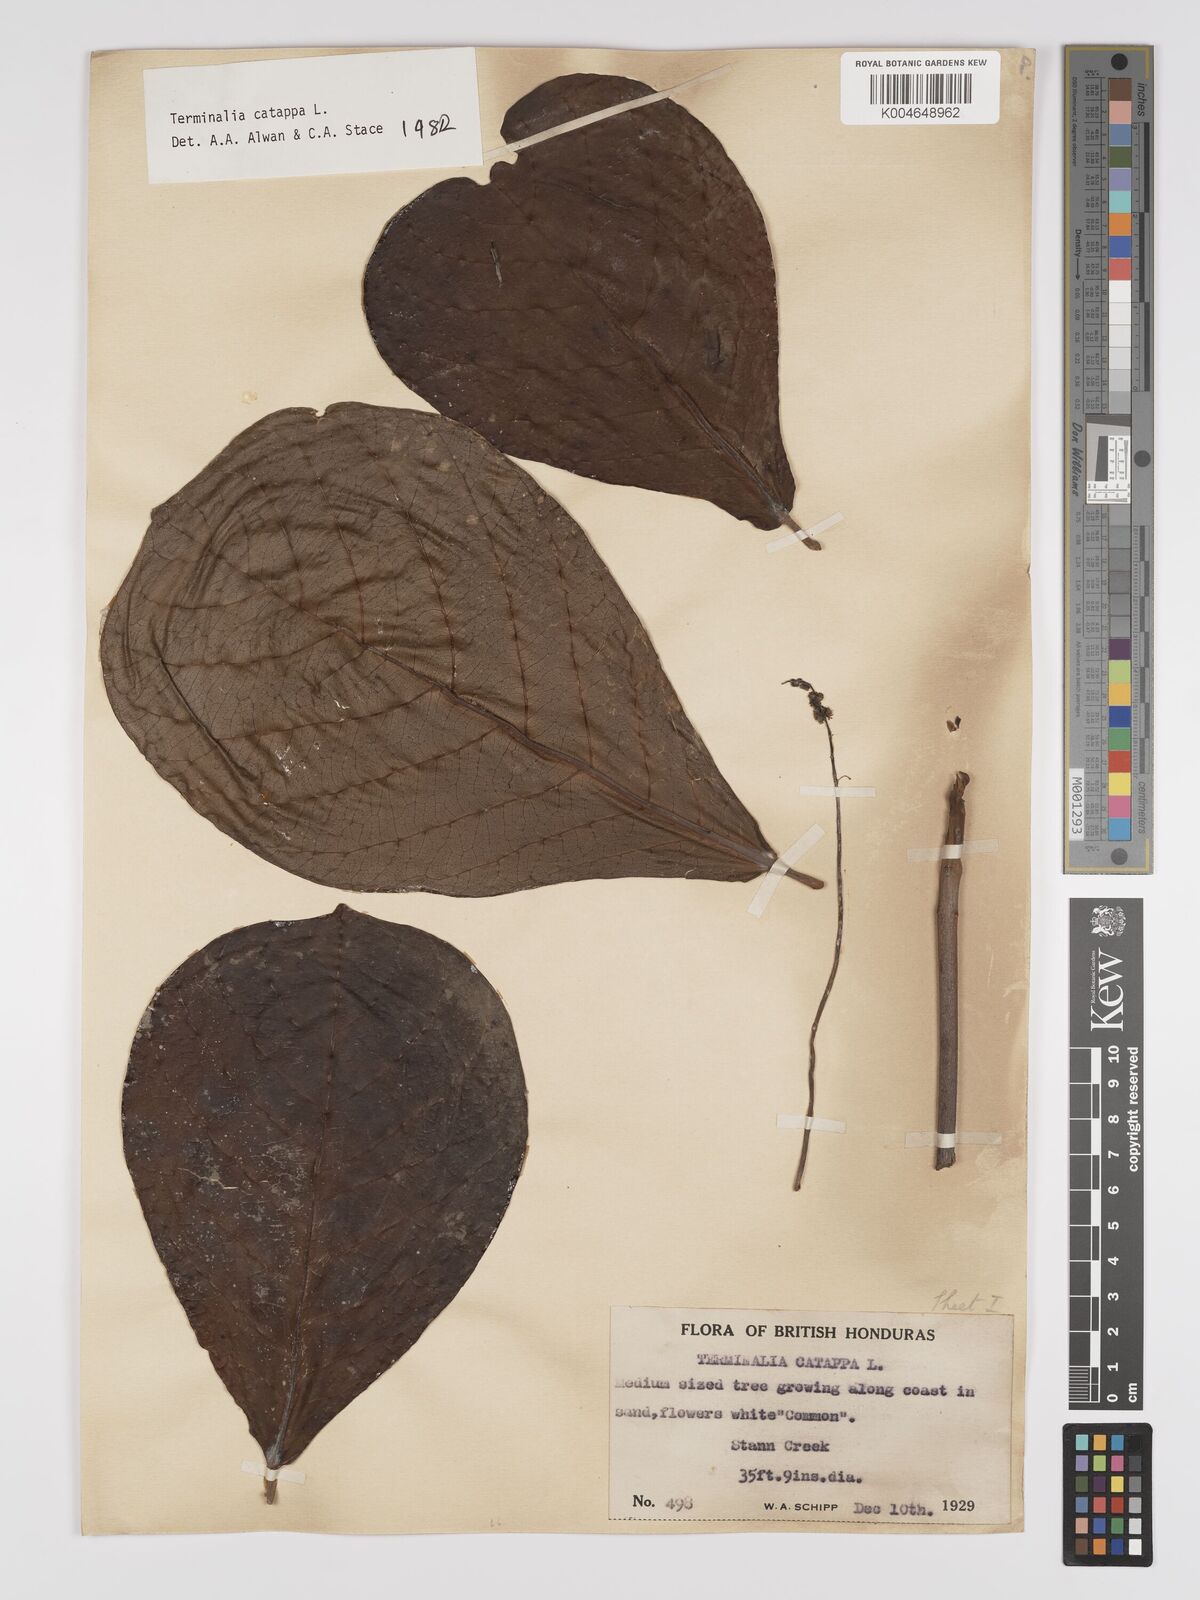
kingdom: Plantae
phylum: Tracheophyta
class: Magnoliopsida
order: Myrtales
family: Combretaceae
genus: Terminalia
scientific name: Terminalia catappa
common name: Tropical almond
